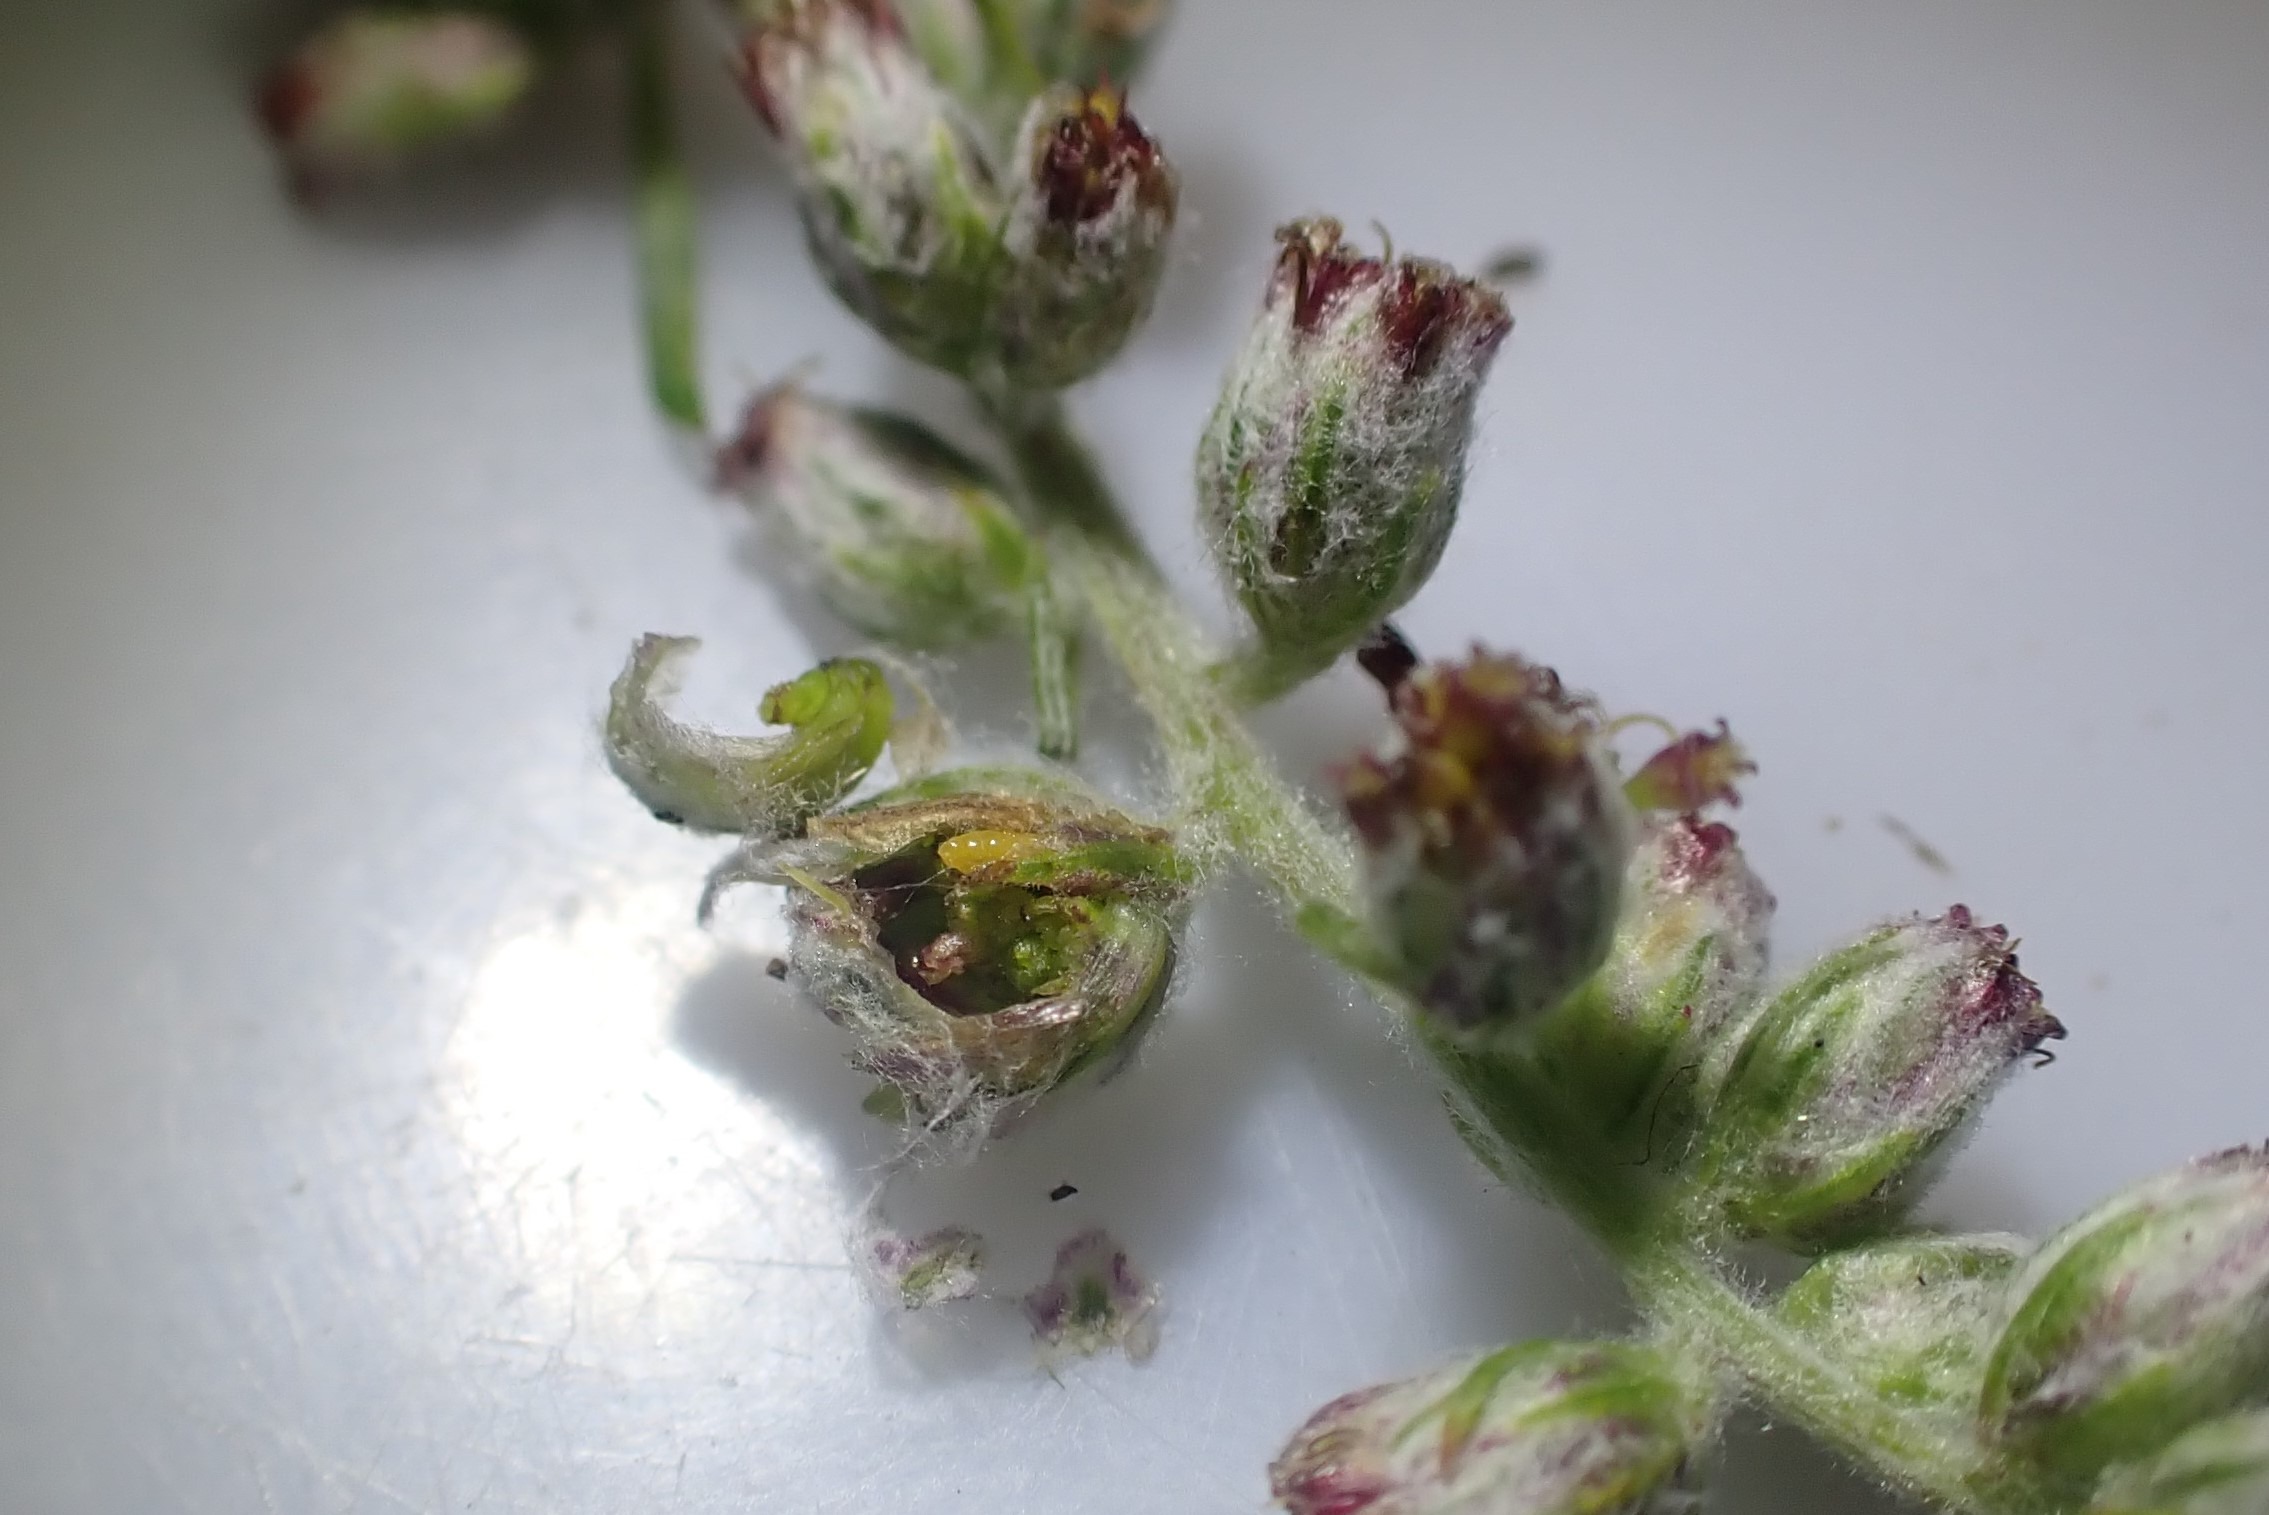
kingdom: Animalia
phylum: Arthropoda
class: Insecta
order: Diptera
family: Cecidomyiidae
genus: Ametrodiplosis
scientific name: Ametrodiplosis rudimentalis
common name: Bynkekurvgalmyg
